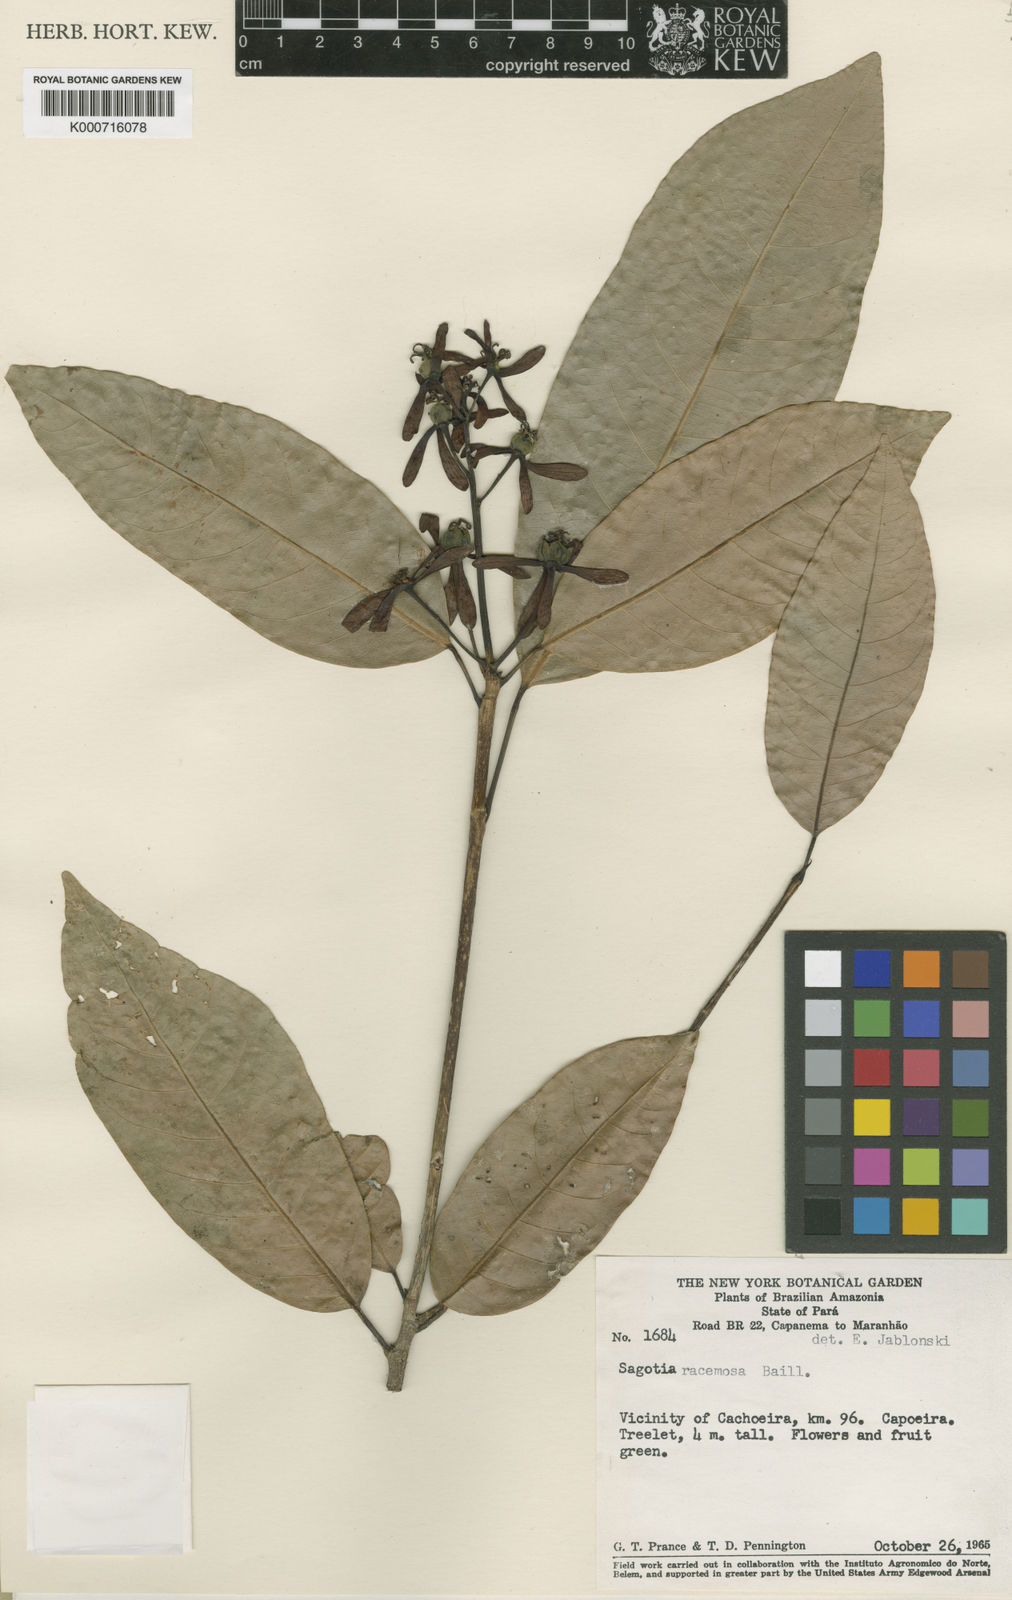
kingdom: Plantae
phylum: Tracheophyta
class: Magnoliopsida
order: Malpighiales
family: Euphorbiaceae
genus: Sagotia
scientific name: Sagotia racemosa
